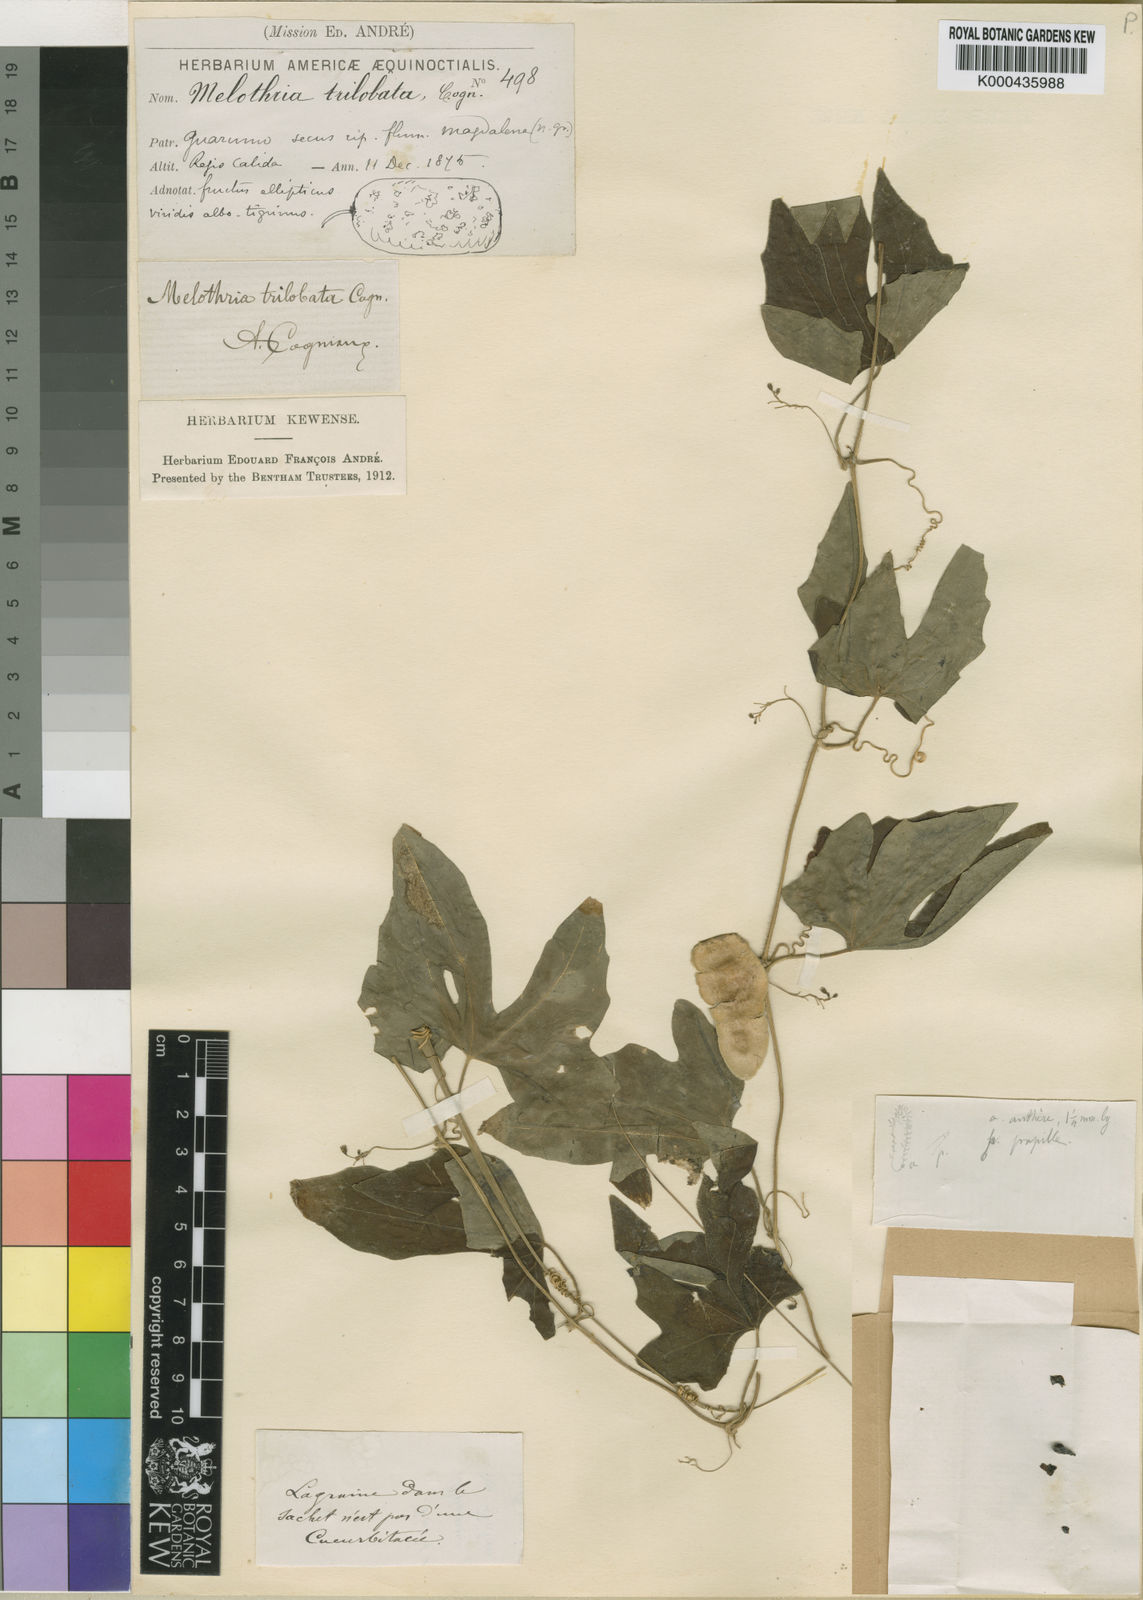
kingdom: Plantae
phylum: Tracheophyta
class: Magnoliopsida
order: Cucurbitales
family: Cucurbitaceae
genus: Melothria
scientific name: Melothria trilobata
